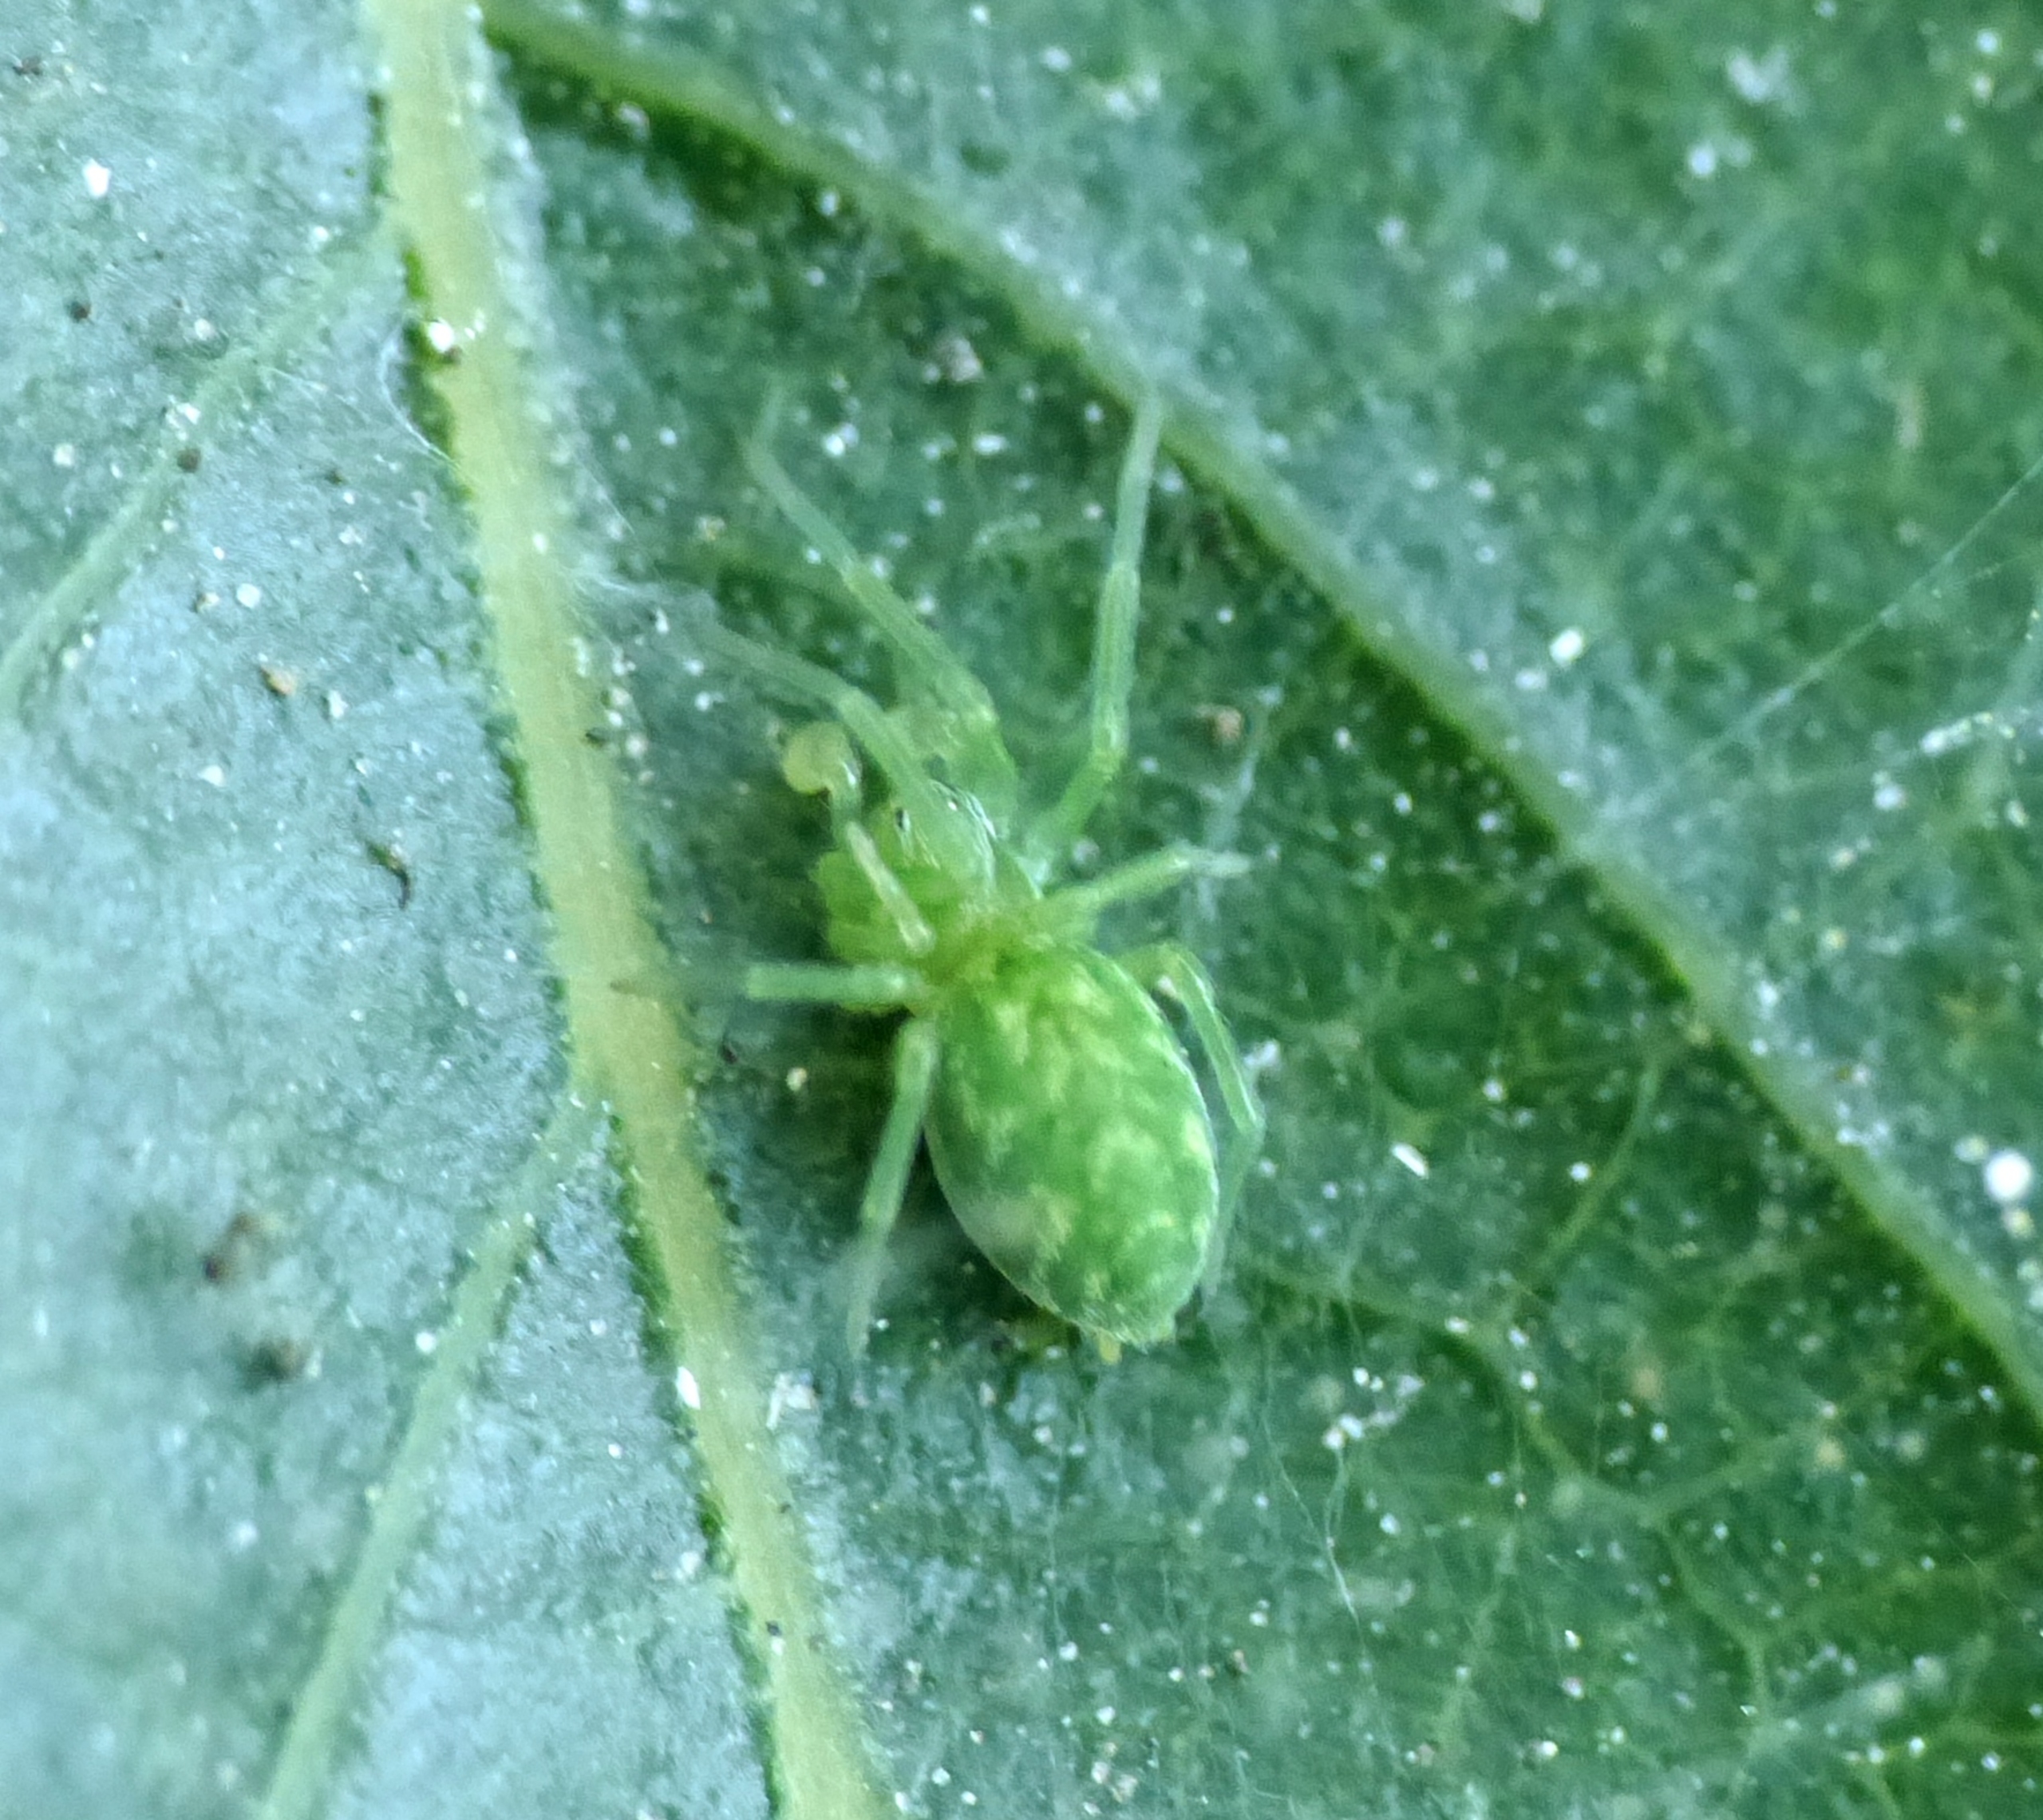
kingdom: Animalia
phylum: Arthropoda
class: Arachnida
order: Araneae
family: Dictynidae
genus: Nigma
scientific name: Nigma walckenaeri
